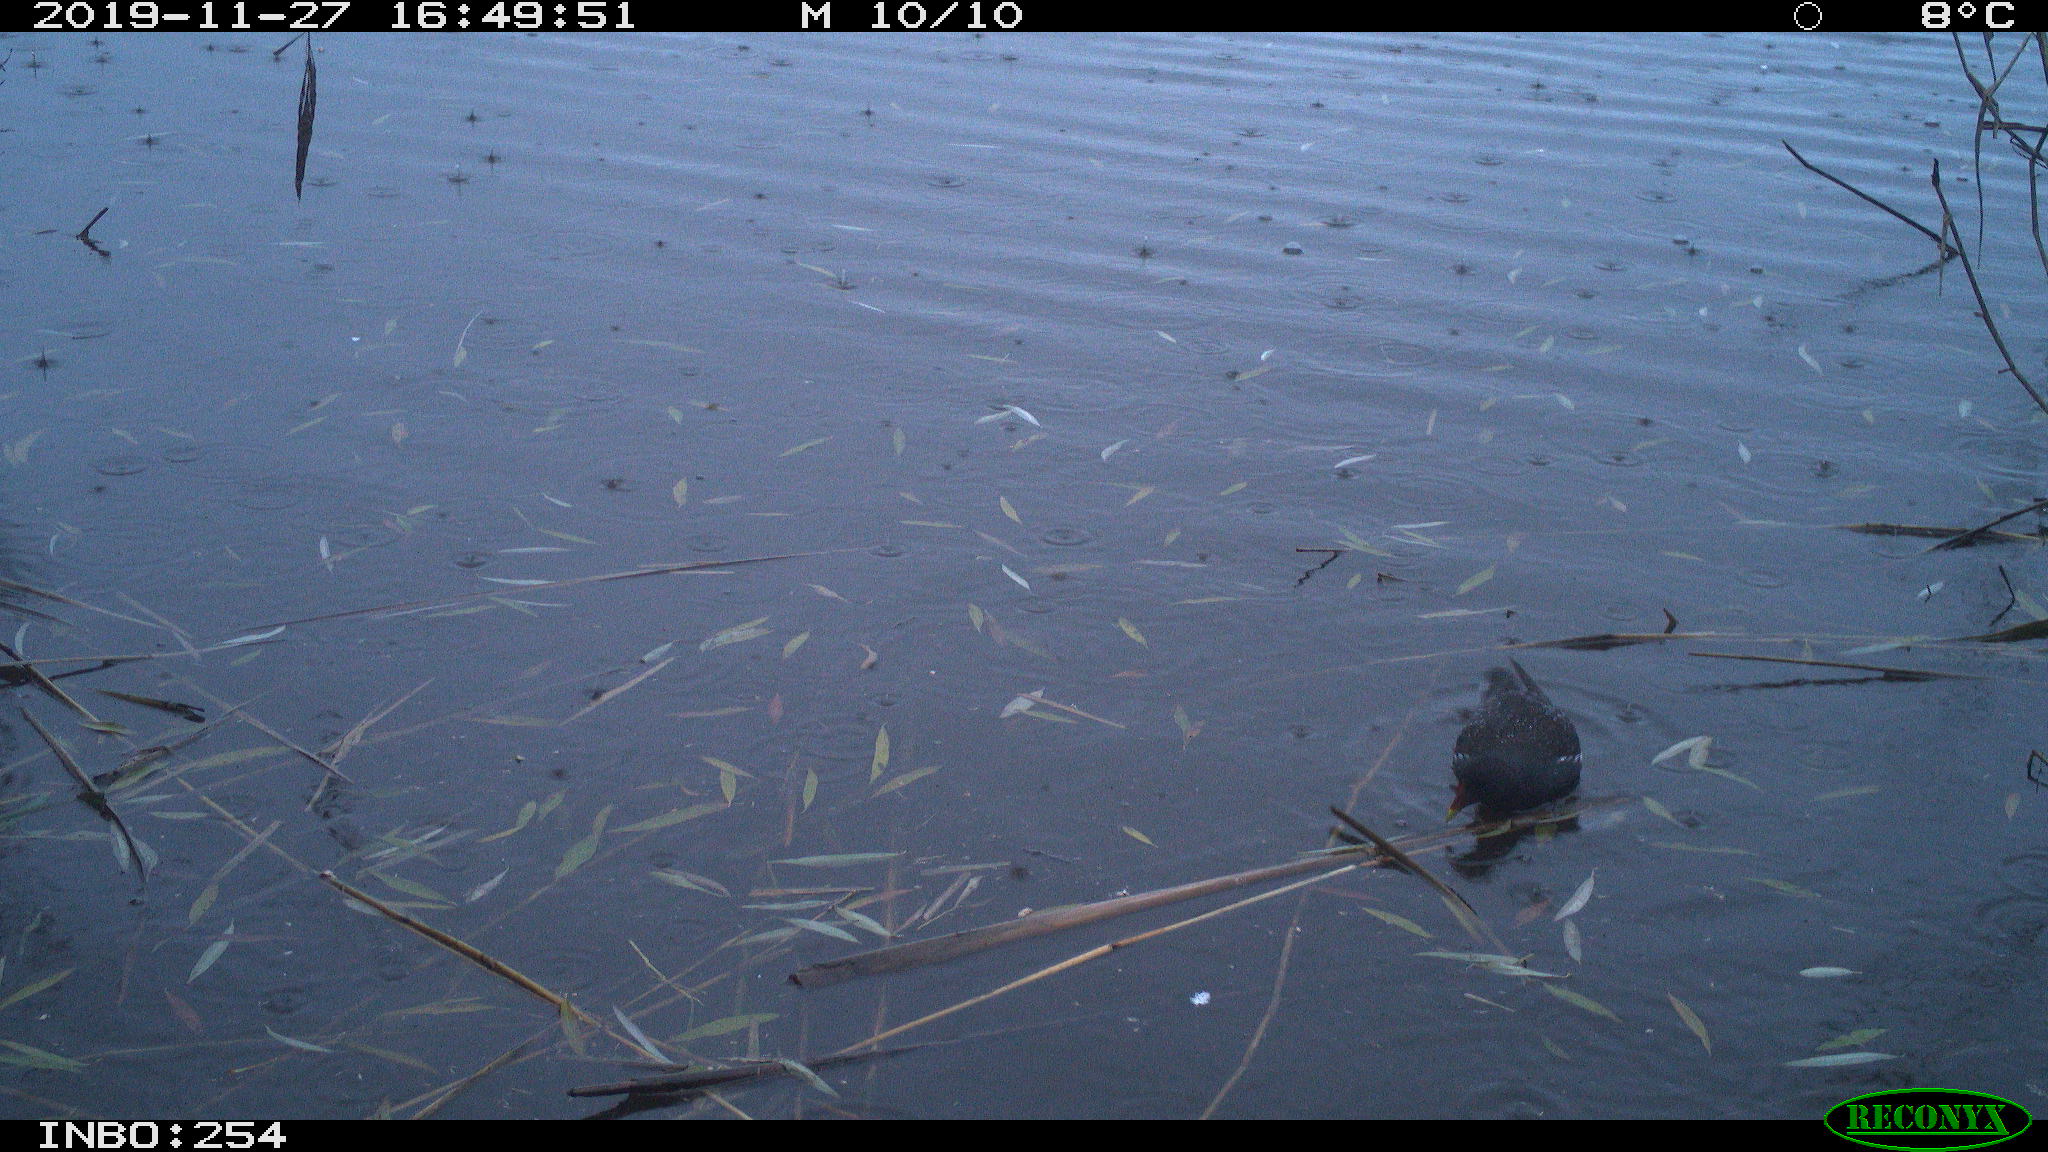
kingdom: Animalia
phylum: Chordata
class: Aves
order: Gruiformes
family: Rallidae
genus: Gallinula
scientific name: Gallinula chloropus
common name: Common moorhen
